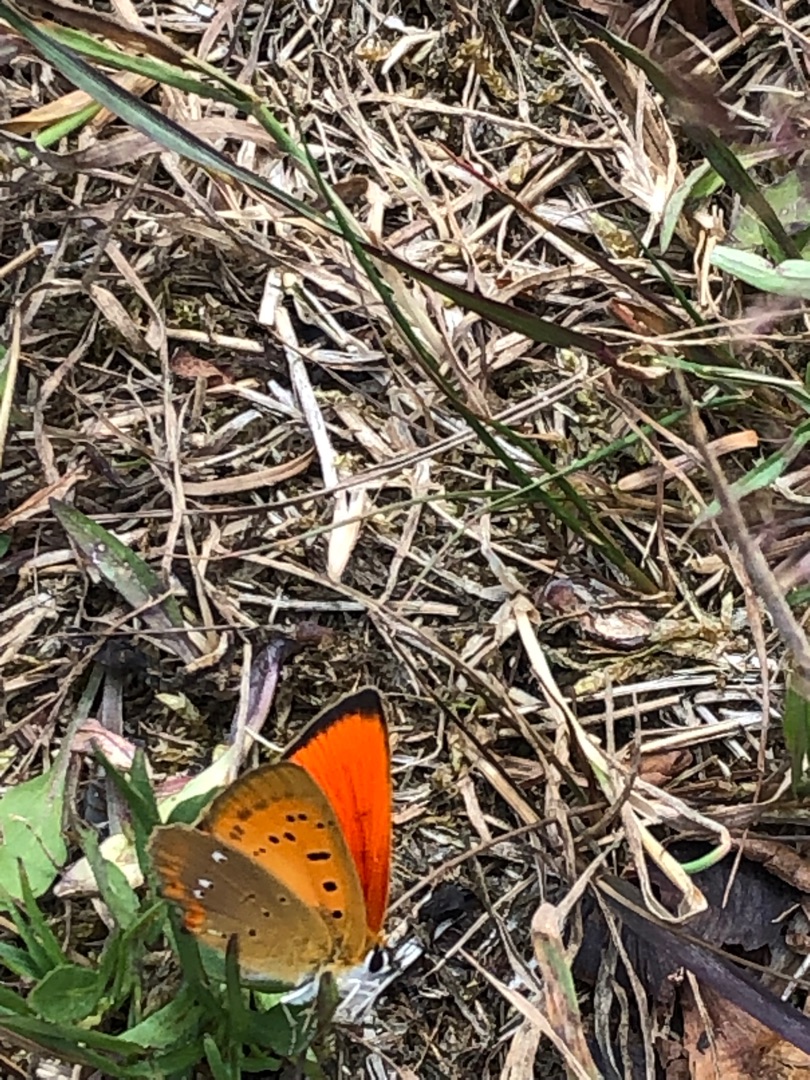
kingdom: Animalia
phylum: Arthropoda
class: Insecta
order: Lepidoptera
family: Lycaenidae
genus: Lycaena
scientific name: Lycaena virgaureae
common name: Dukatsommerfugl
